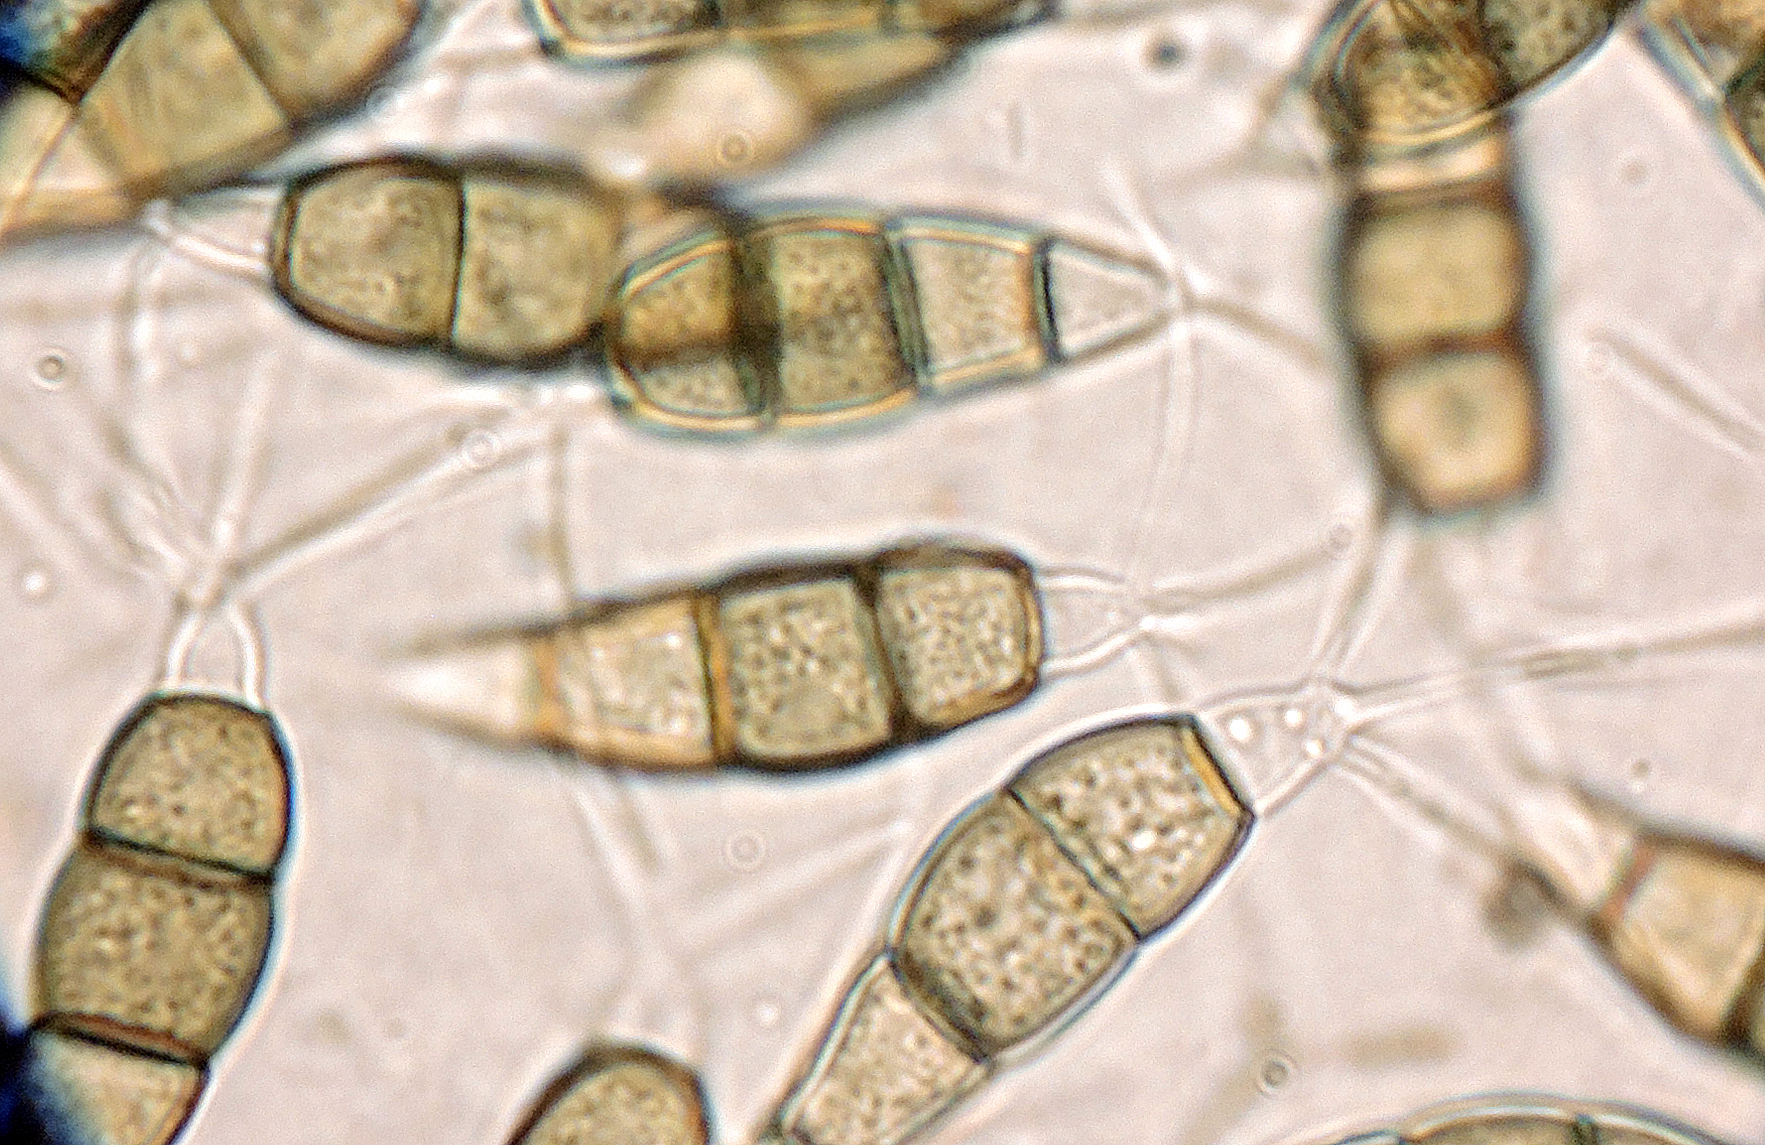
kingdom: Fungi
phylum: Ascomycota
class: Sordariomycetes
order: Amphisphaeriales
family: Pestalotiopsidaceae
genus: Pestalotiopsis
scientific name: Pestalotiopsis funerea
